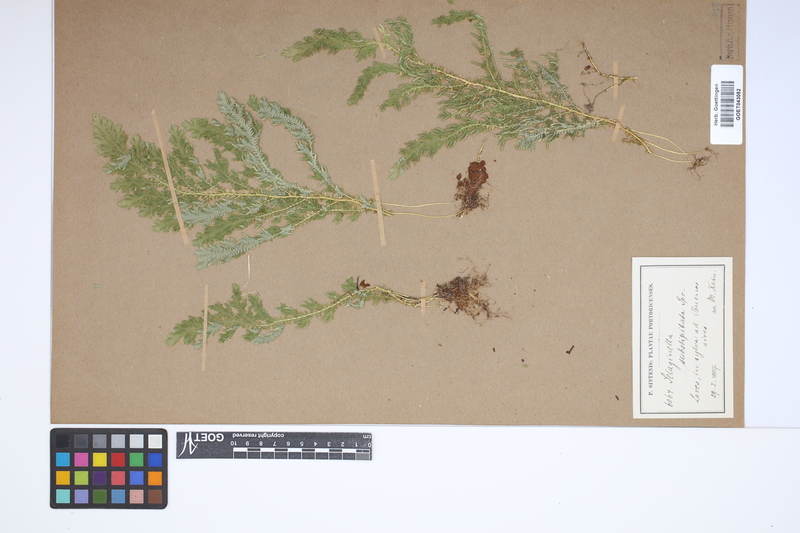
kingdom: Plantae
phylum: Tracheophyta
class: Lycopodiopsida
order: Selaginellales
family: Selaginellaceae
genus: Selaginella
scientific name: Selaginella substipitata
